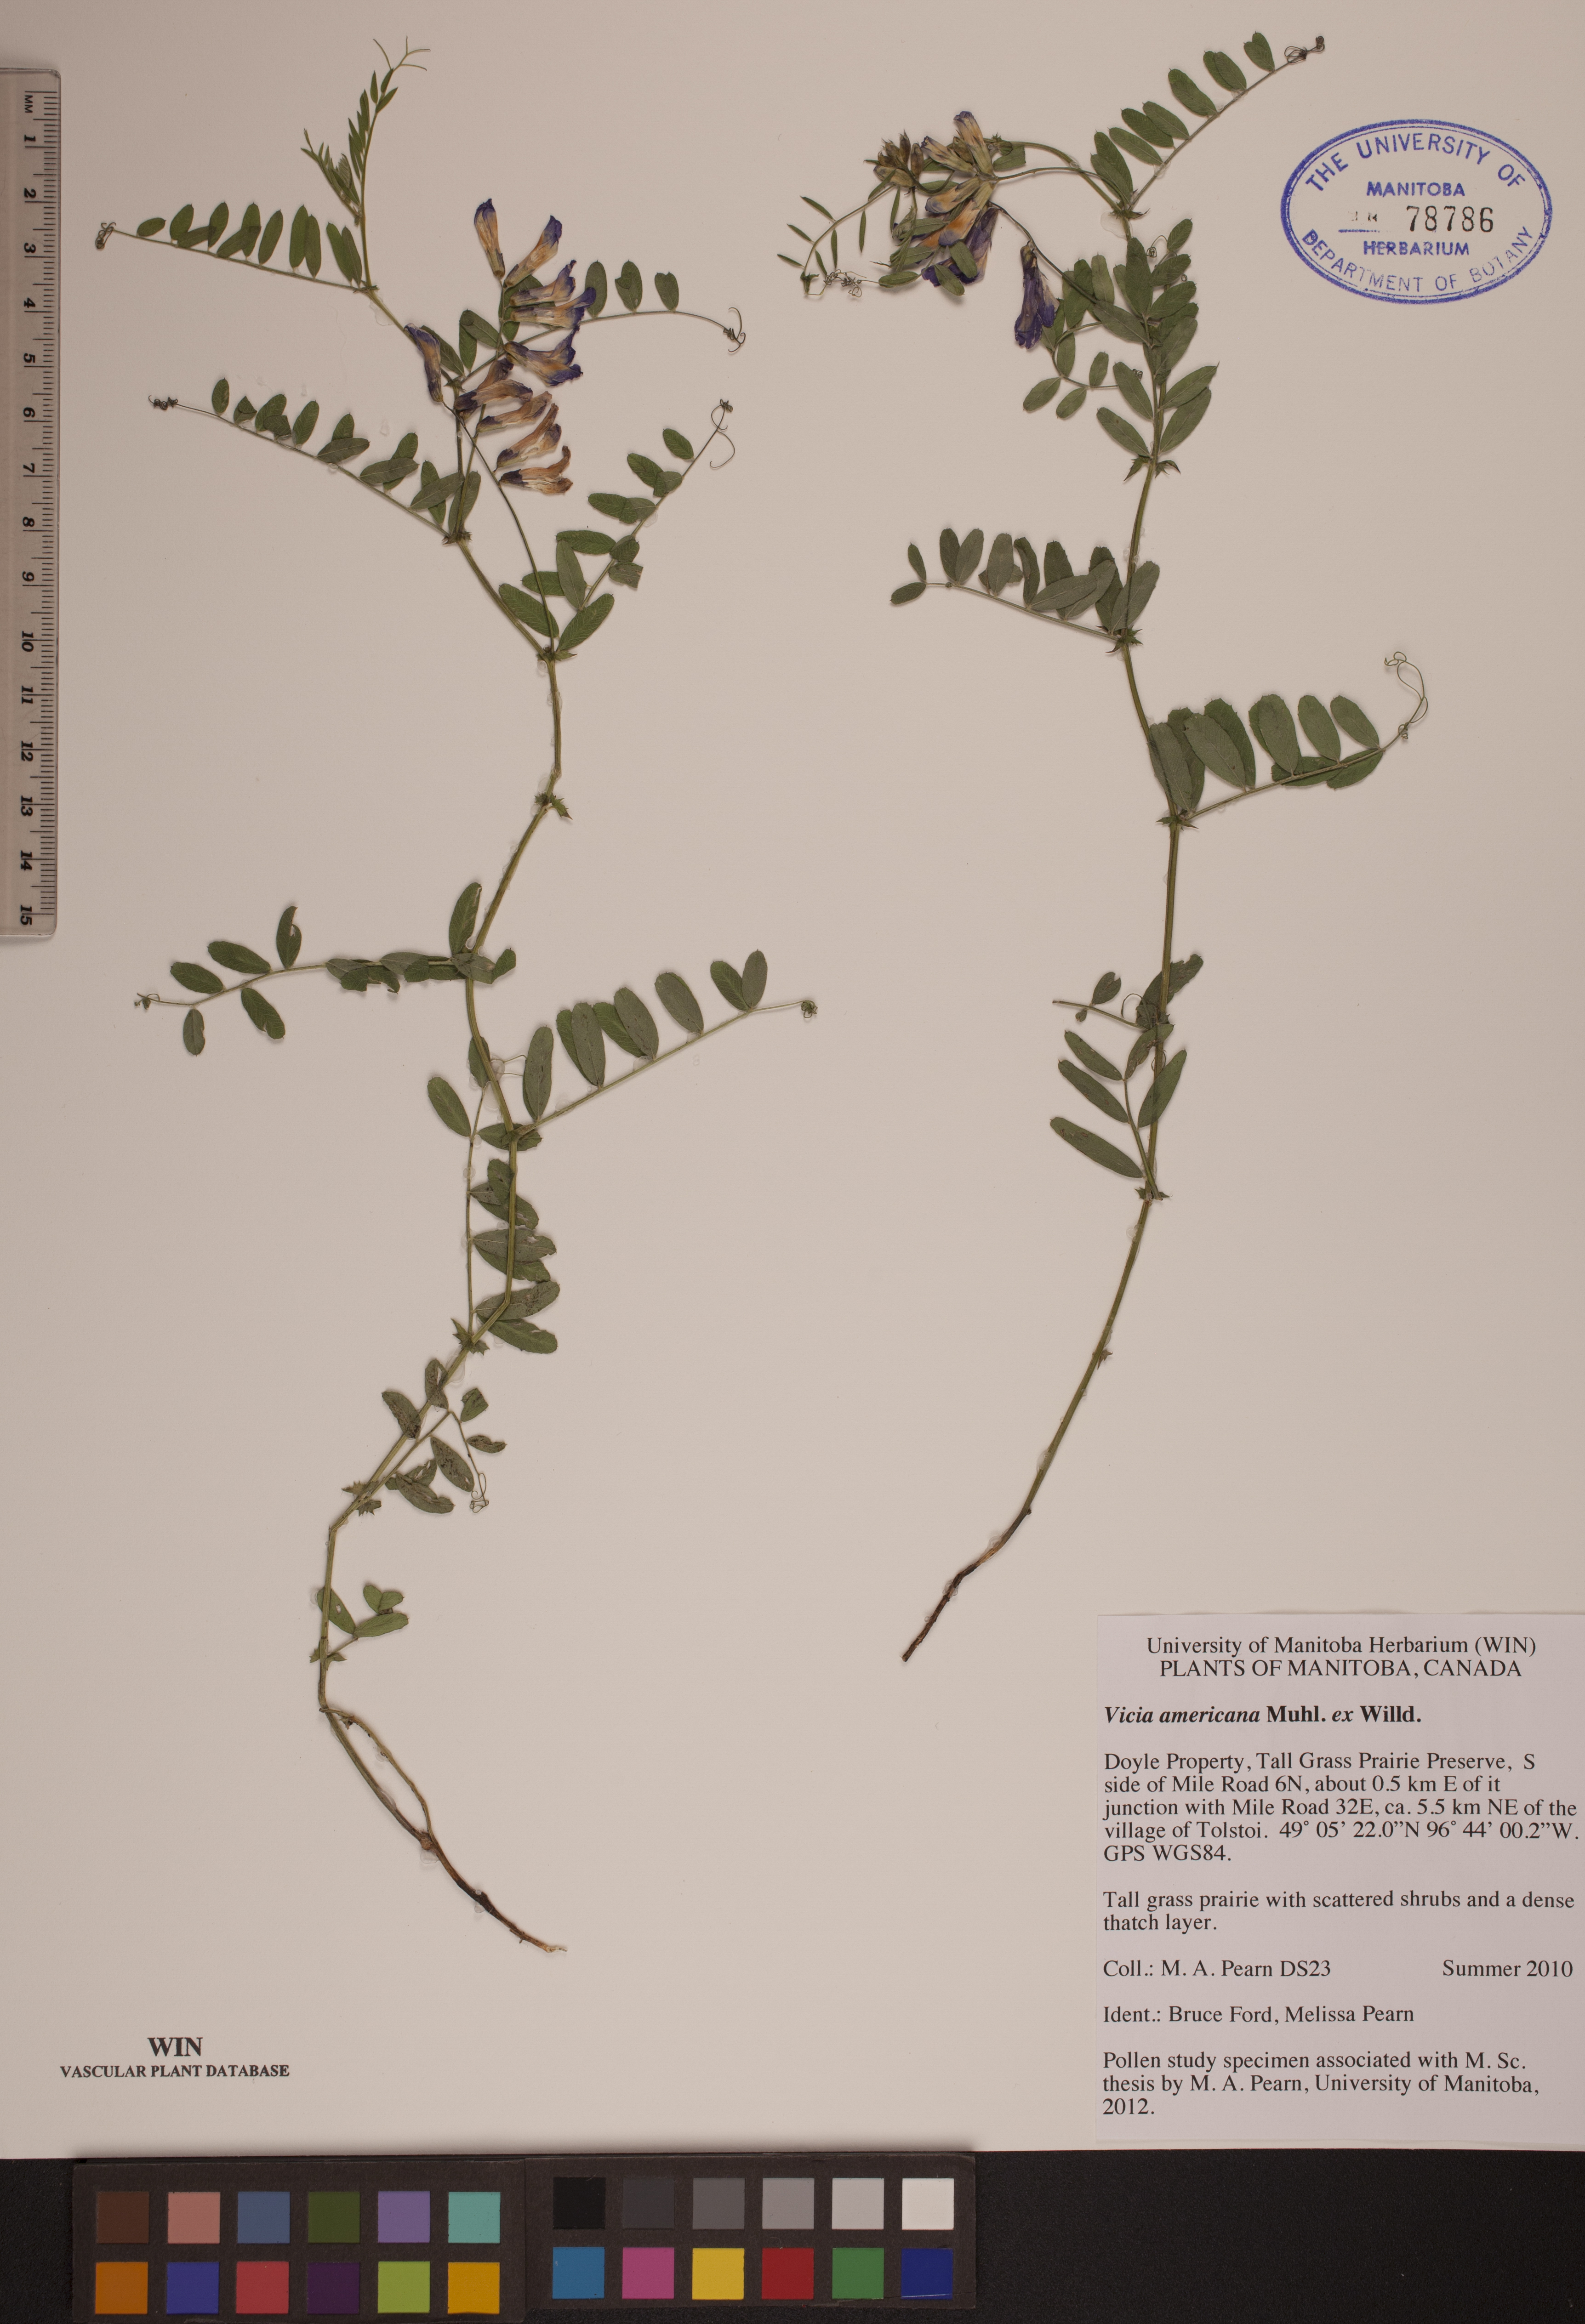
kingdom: Plantae
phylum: Tracheophyta
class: Magnoliopsida
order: Fabales
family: Fabaceae
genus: Vicia
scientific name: Vicia americana
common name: American vetch
